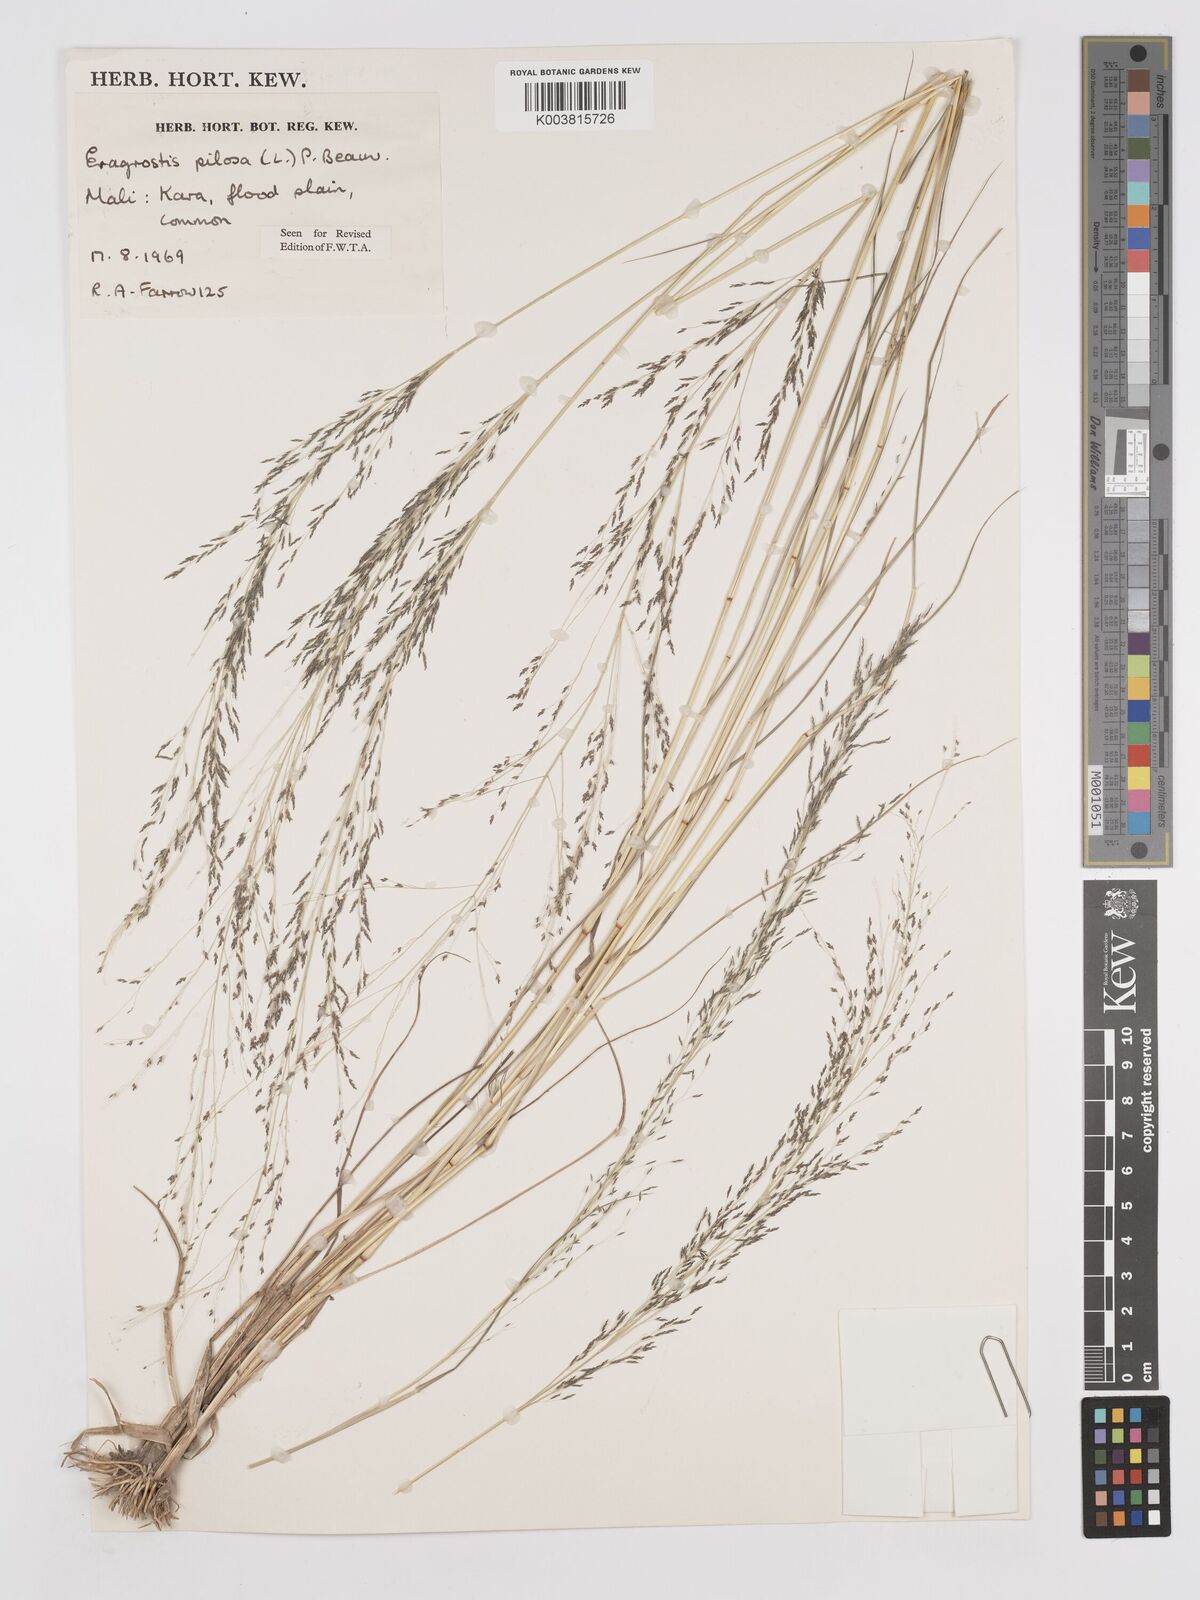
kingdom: Plantae
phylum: Tracheophyta
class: Liliopsida
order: Poales
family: Poaceae
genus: Eragrostis
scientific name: Eragrostis pilosa
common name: Indian lovegrass
